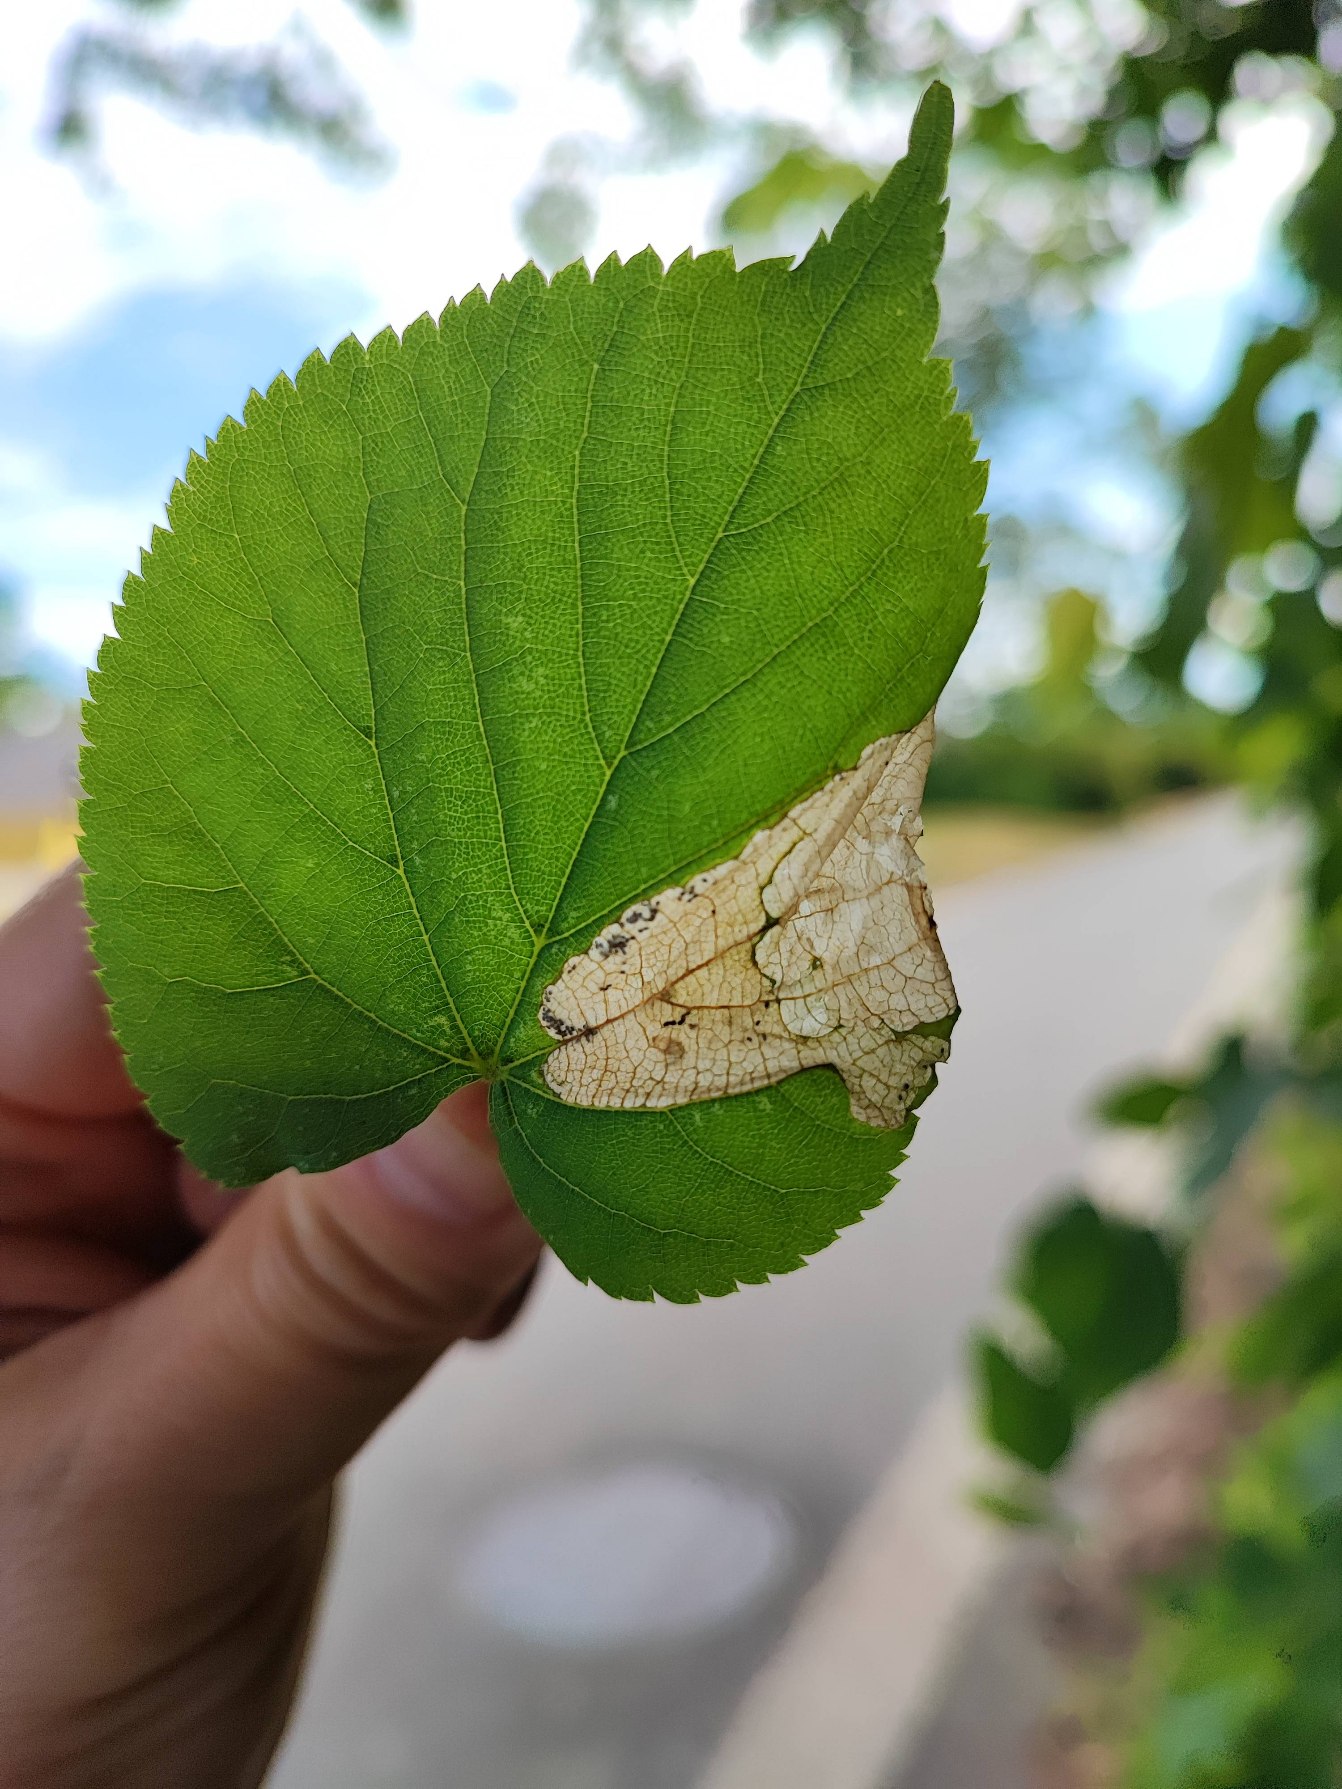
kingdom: Animalia
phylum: Arthropoda
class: Insecta
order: Hymenoptera
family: Tenthredinidae
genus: Parna
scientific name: Parna apicalis
